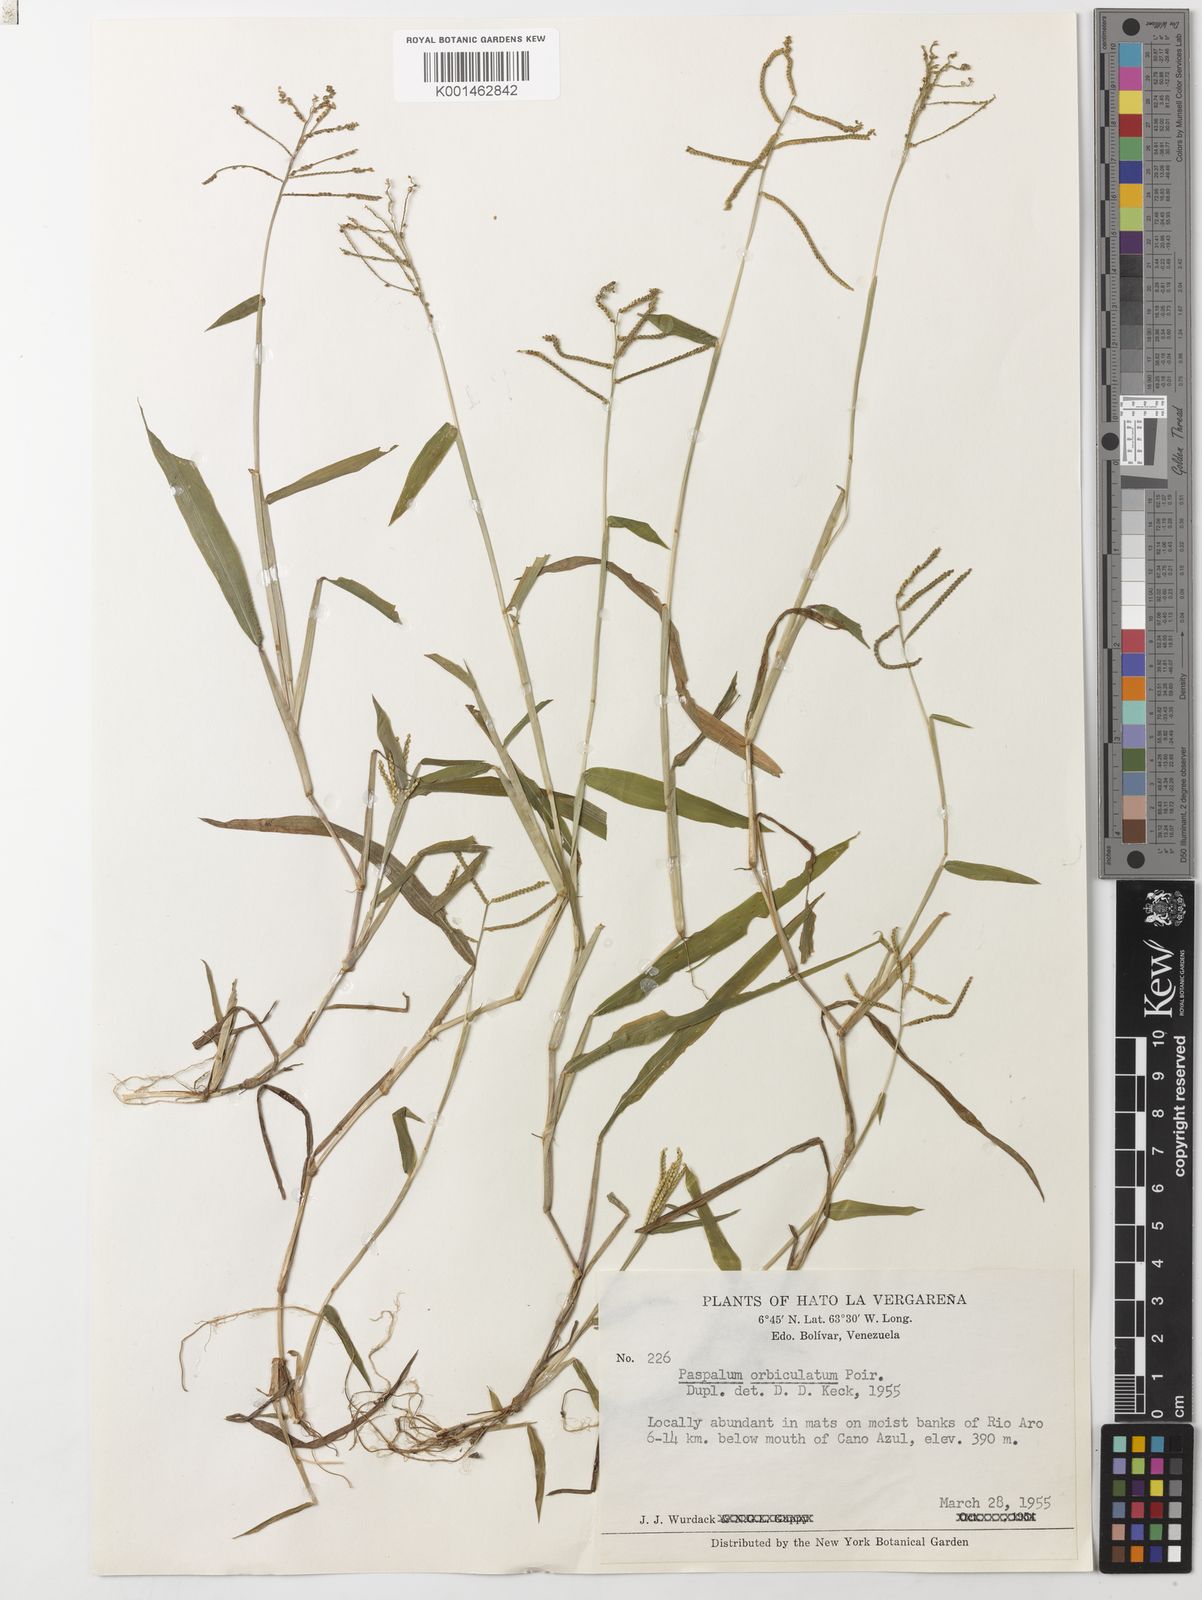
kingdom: Plantae
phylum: Tracheophyta
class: Liliopsida
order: Poales
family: Poaceae
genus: Paspalum
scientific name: Paspalum orbiculatum
